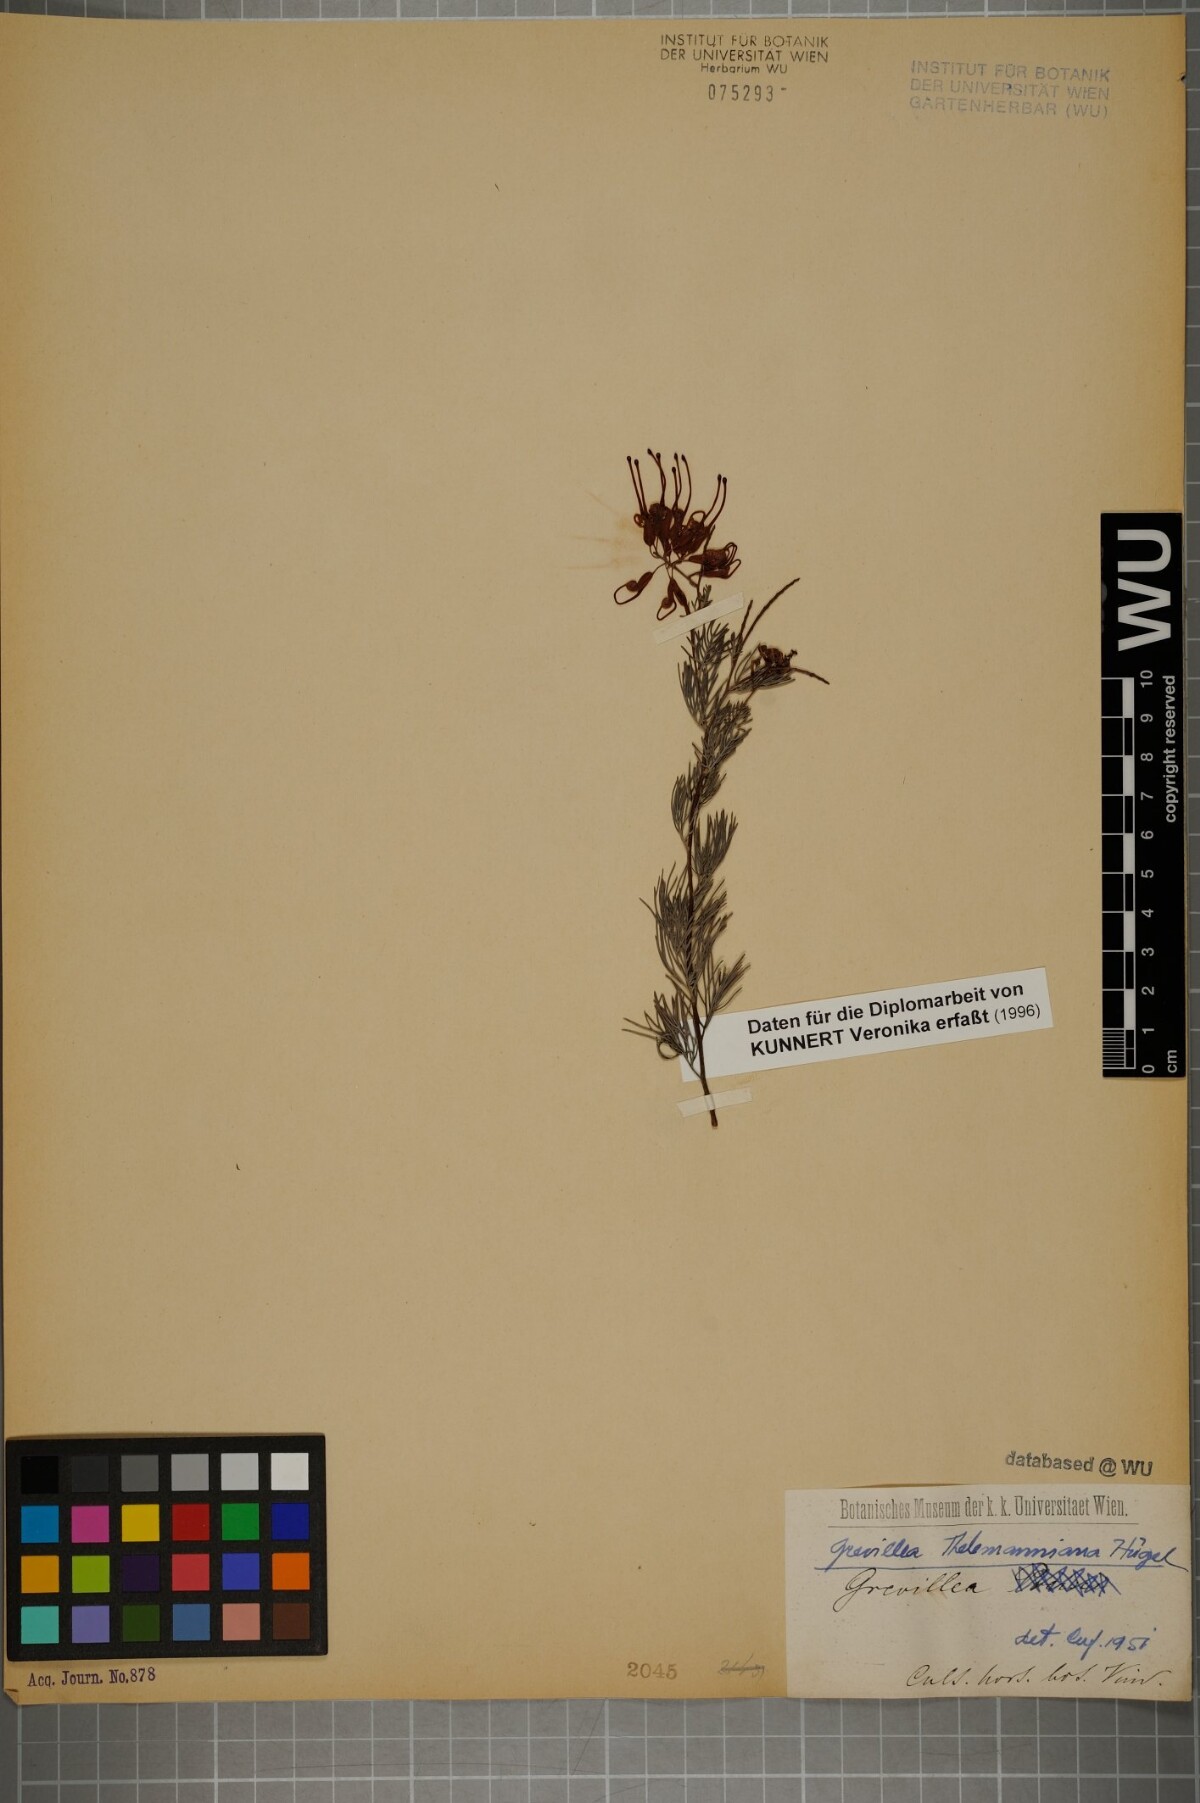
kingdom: Plantae
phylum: Tracheophyta
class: Magnoliopsida
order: Proteales
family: Proteaceae
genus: Grevillea
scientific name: Grevillea thelemanniana
